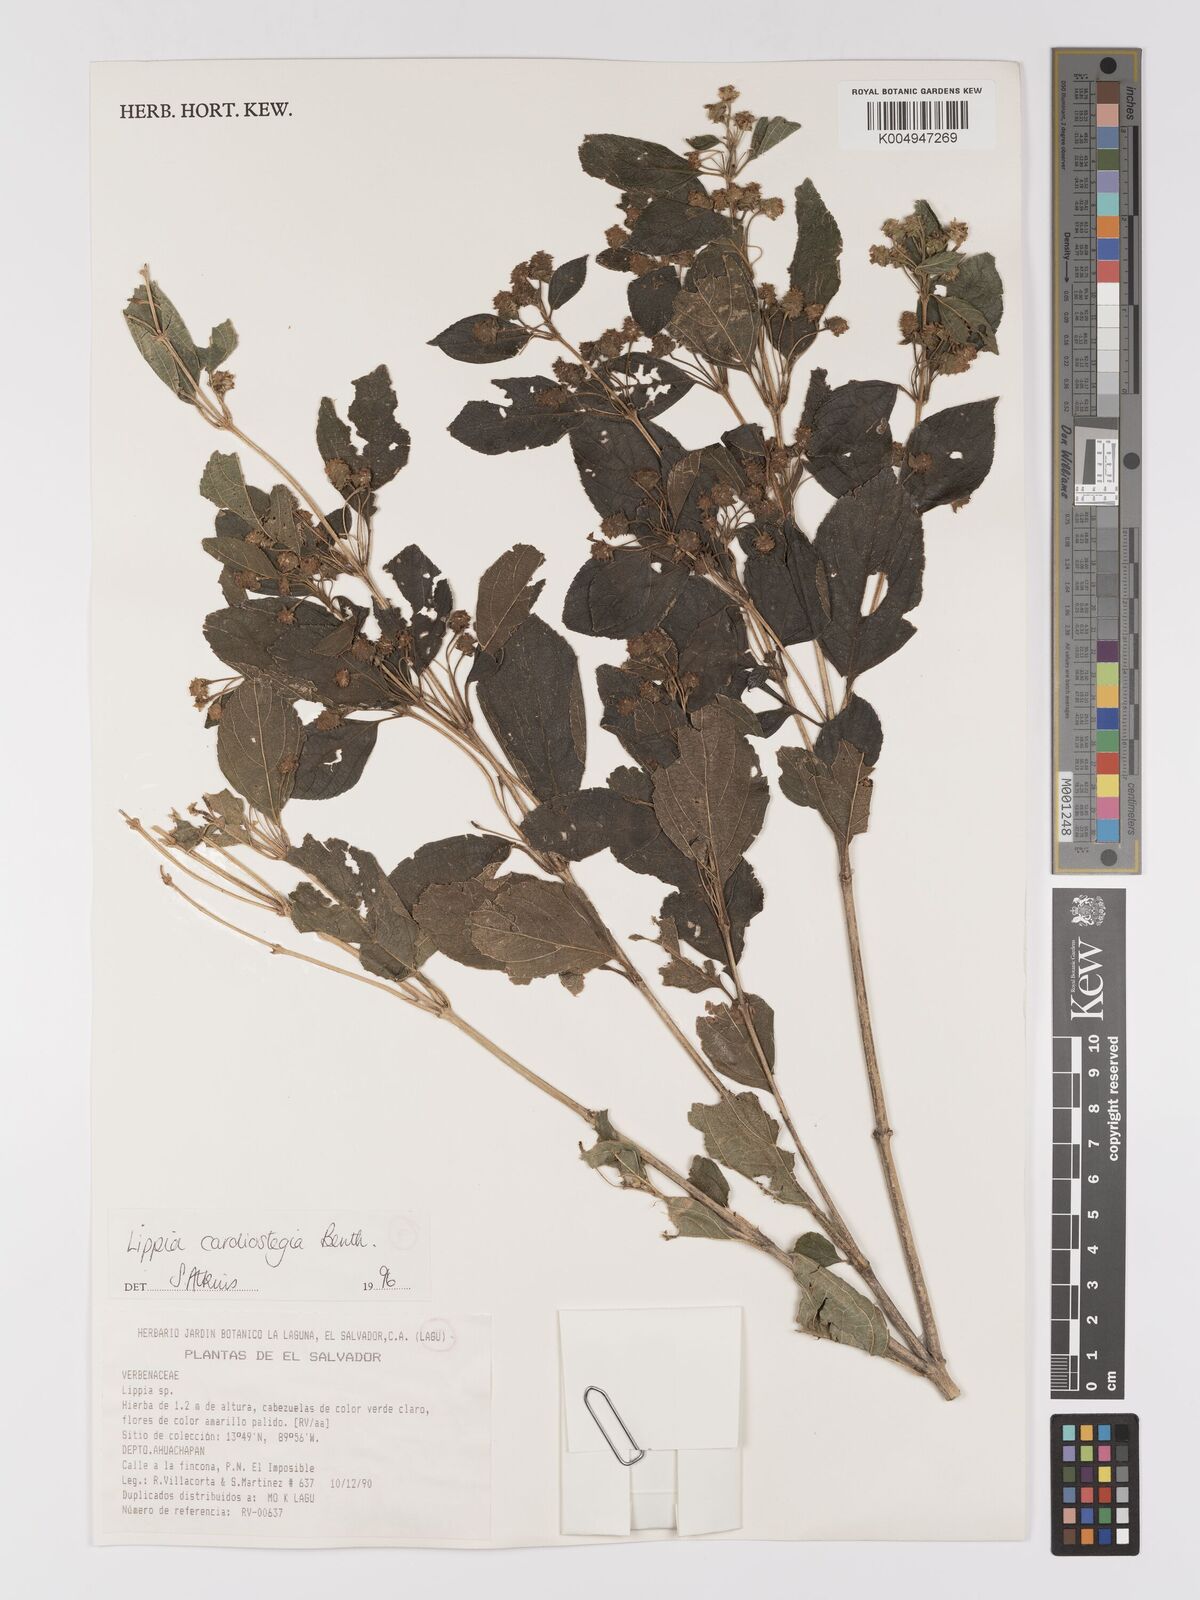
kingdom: Plantae
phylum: Tracheophyta
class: Magnoliopsida
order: Lamiales
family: Verbenaceae
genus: Lippia
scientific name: Lippia cardiostegia
